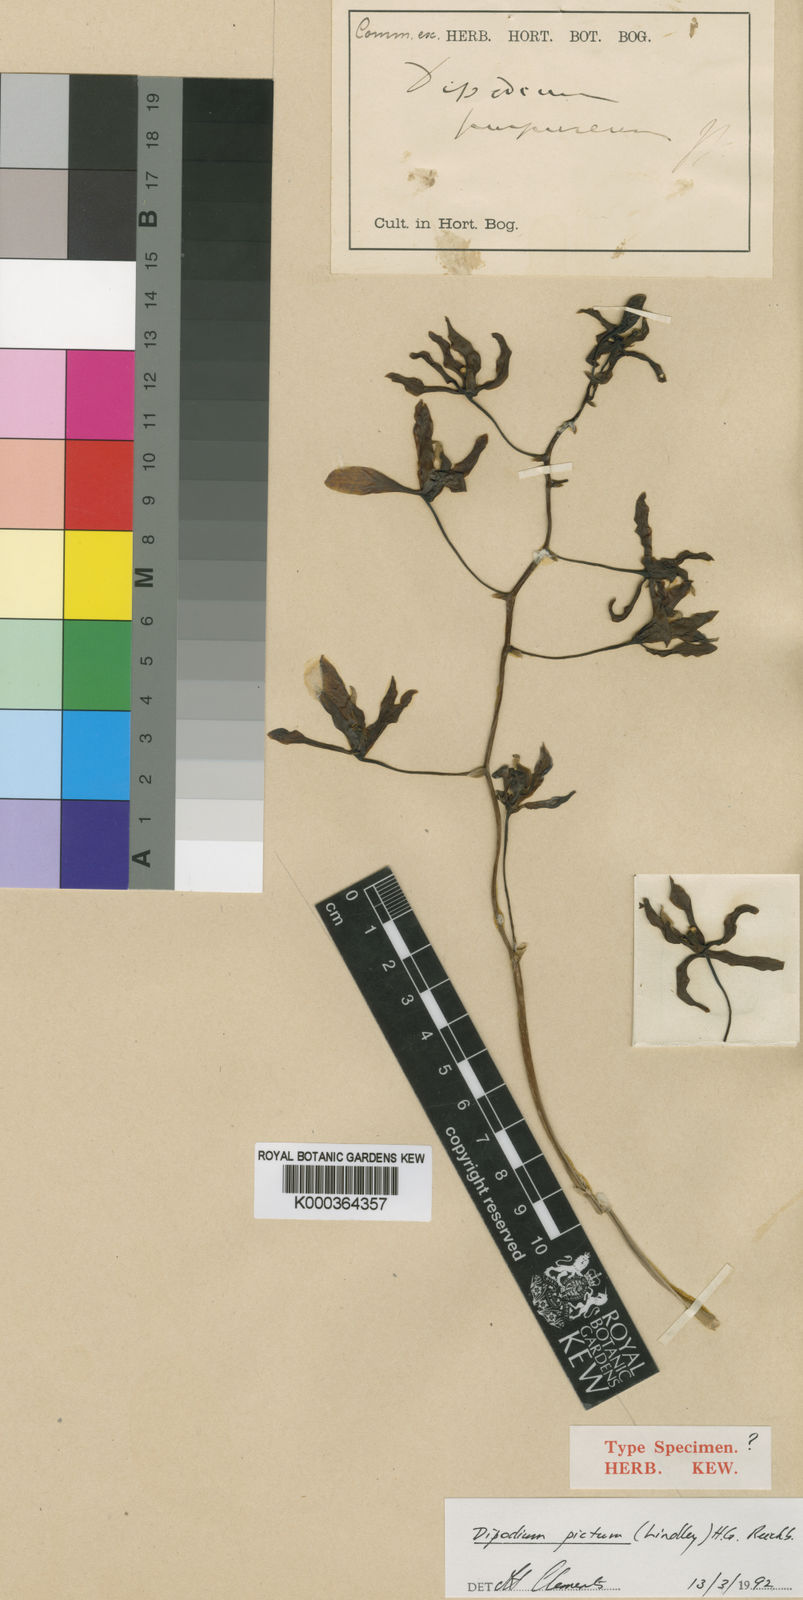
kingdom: Plantae
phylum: Tracheophyta
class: Liliopsida
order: Asparagales
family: Orchidaceae
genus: Dipodium
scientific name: Dipodium pictum
